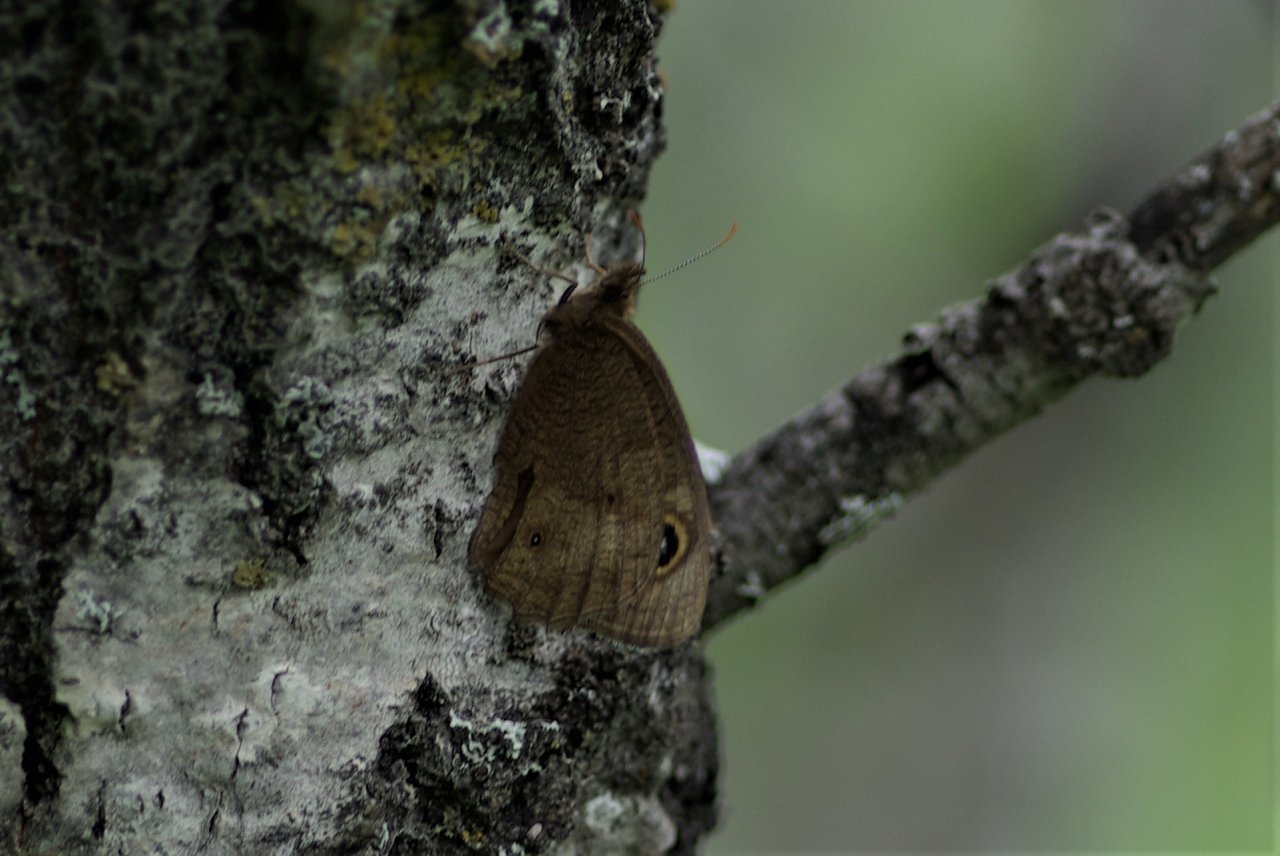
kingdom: Animalia
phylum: Arthropoda
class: Insecta
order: Lepidoptera
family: Nymphalidae
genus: Cercyonis
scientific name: Cercyonis pegala
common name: Common Wood-Nymph
